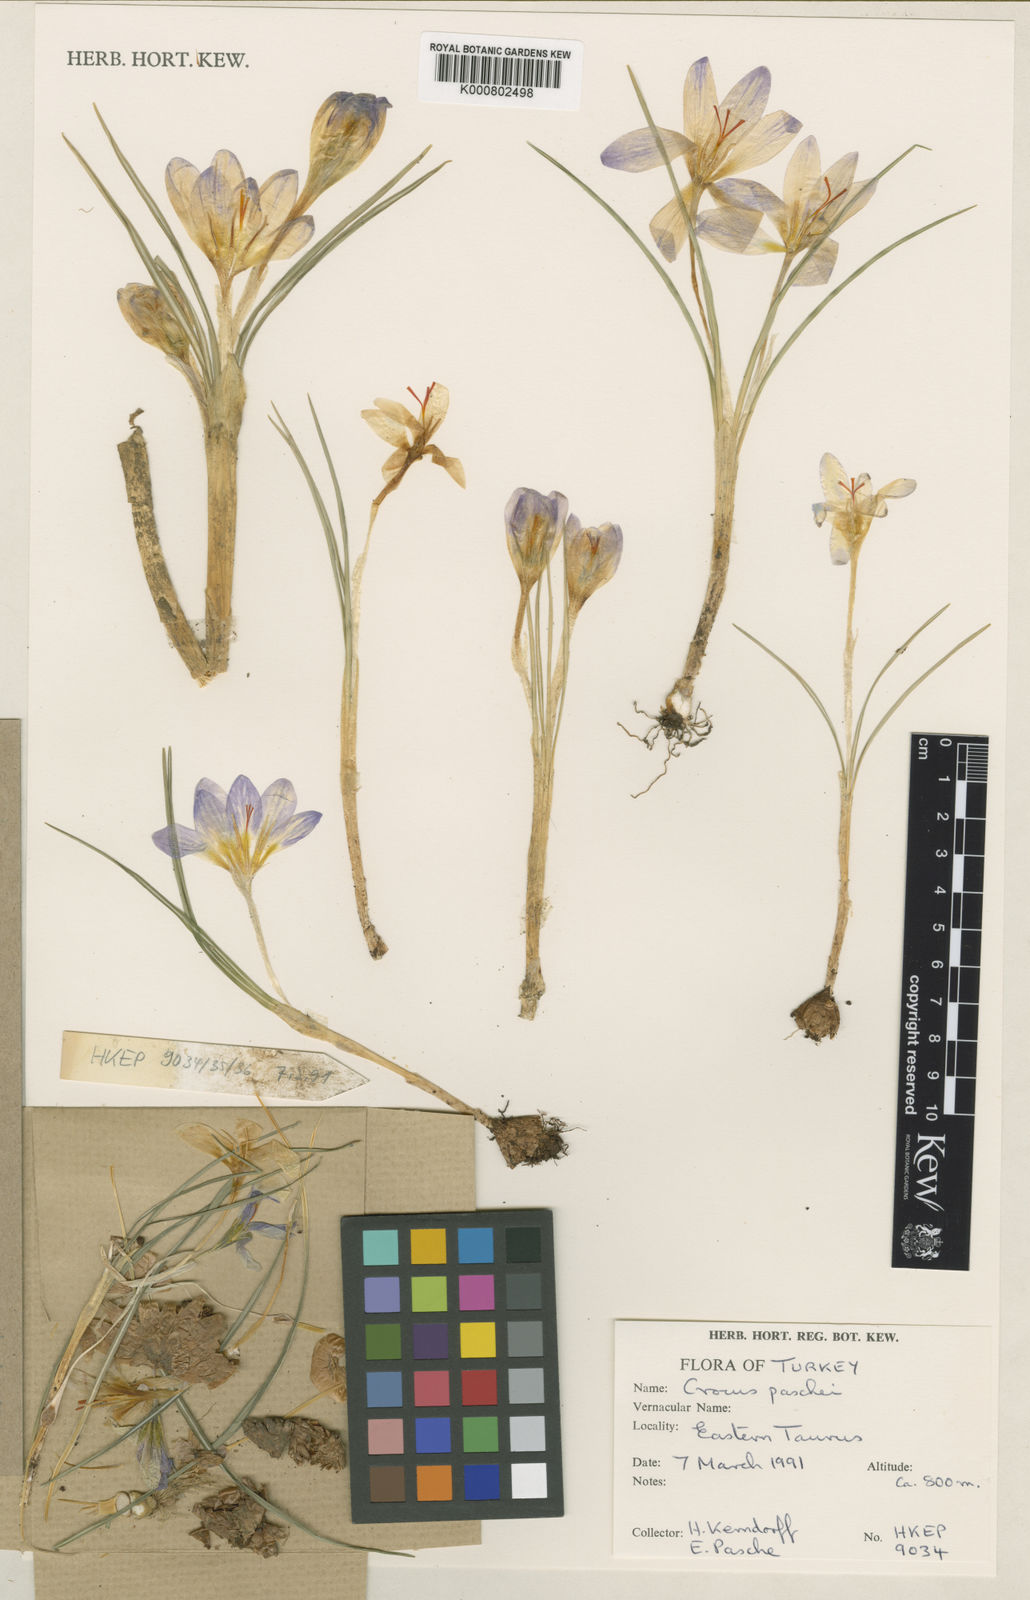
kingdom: Plantae
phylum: Tracheophyta
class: Liliopsida
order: Asparagales
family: Iridaceae
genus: Crocus
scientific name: Crocus adanensis
